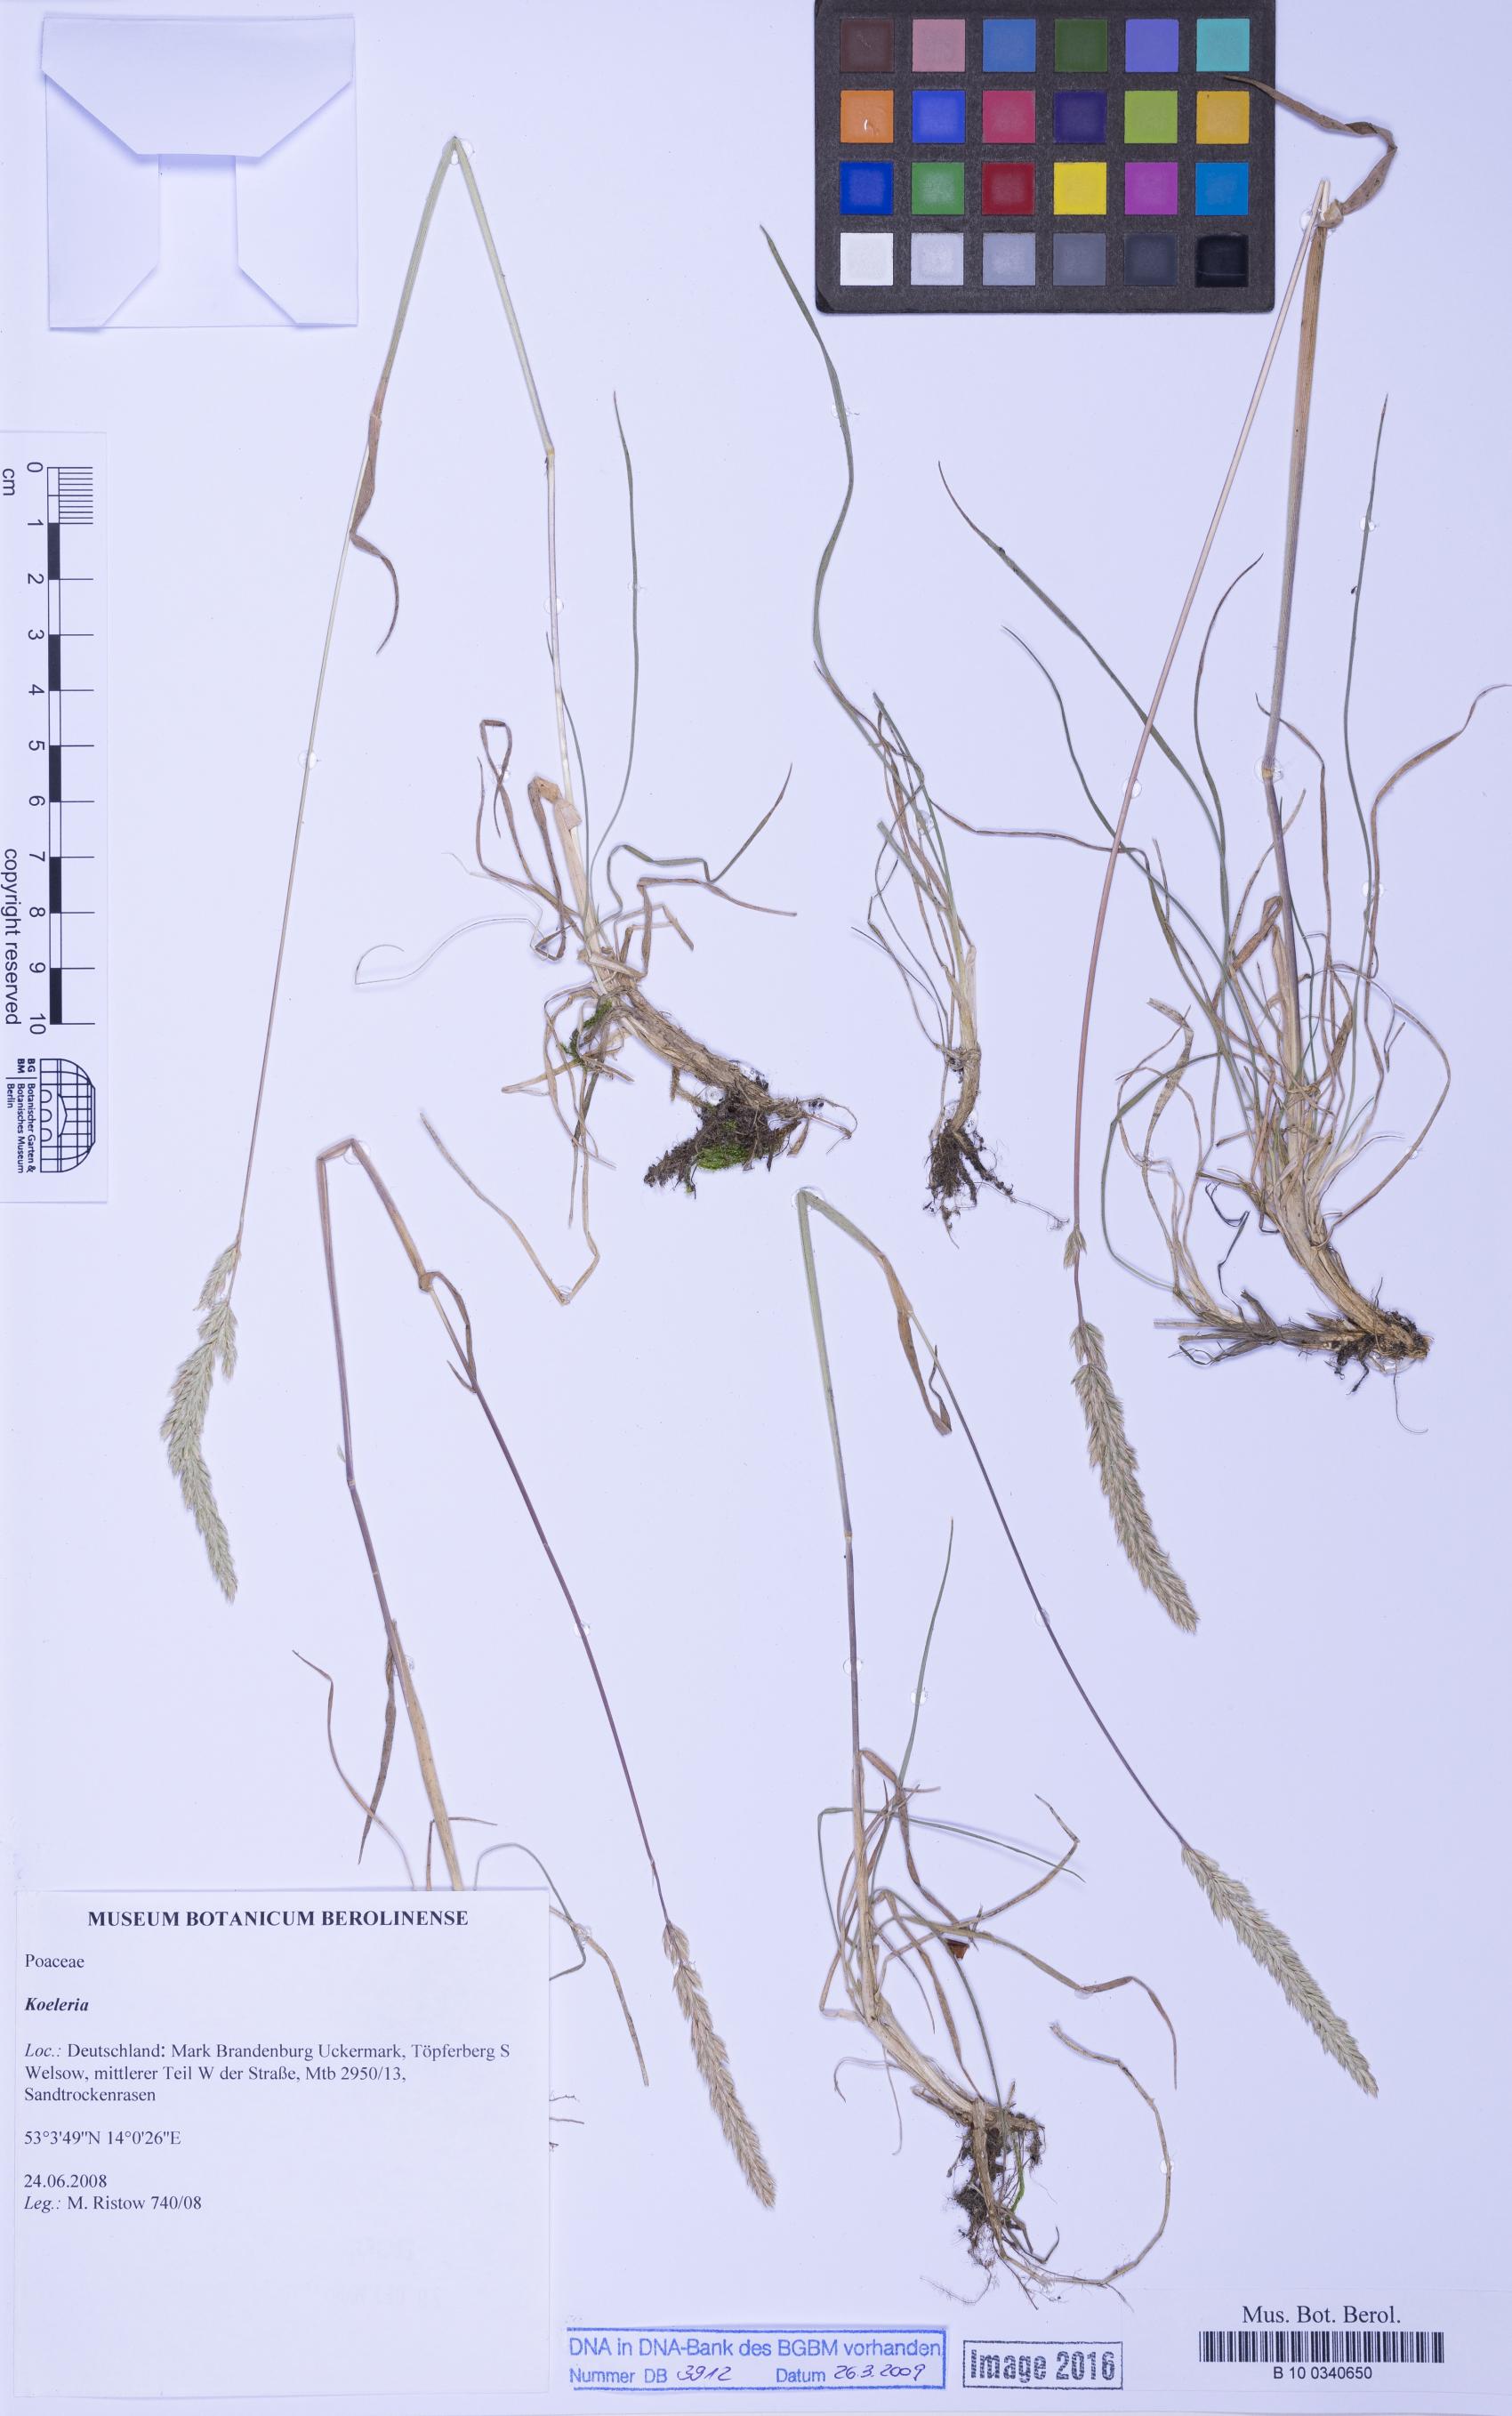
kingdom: Plantae
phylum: Tracheophyta
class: Liliopsida
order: Poales
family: Poaceae
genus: Koeleria
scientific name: Koeleria
